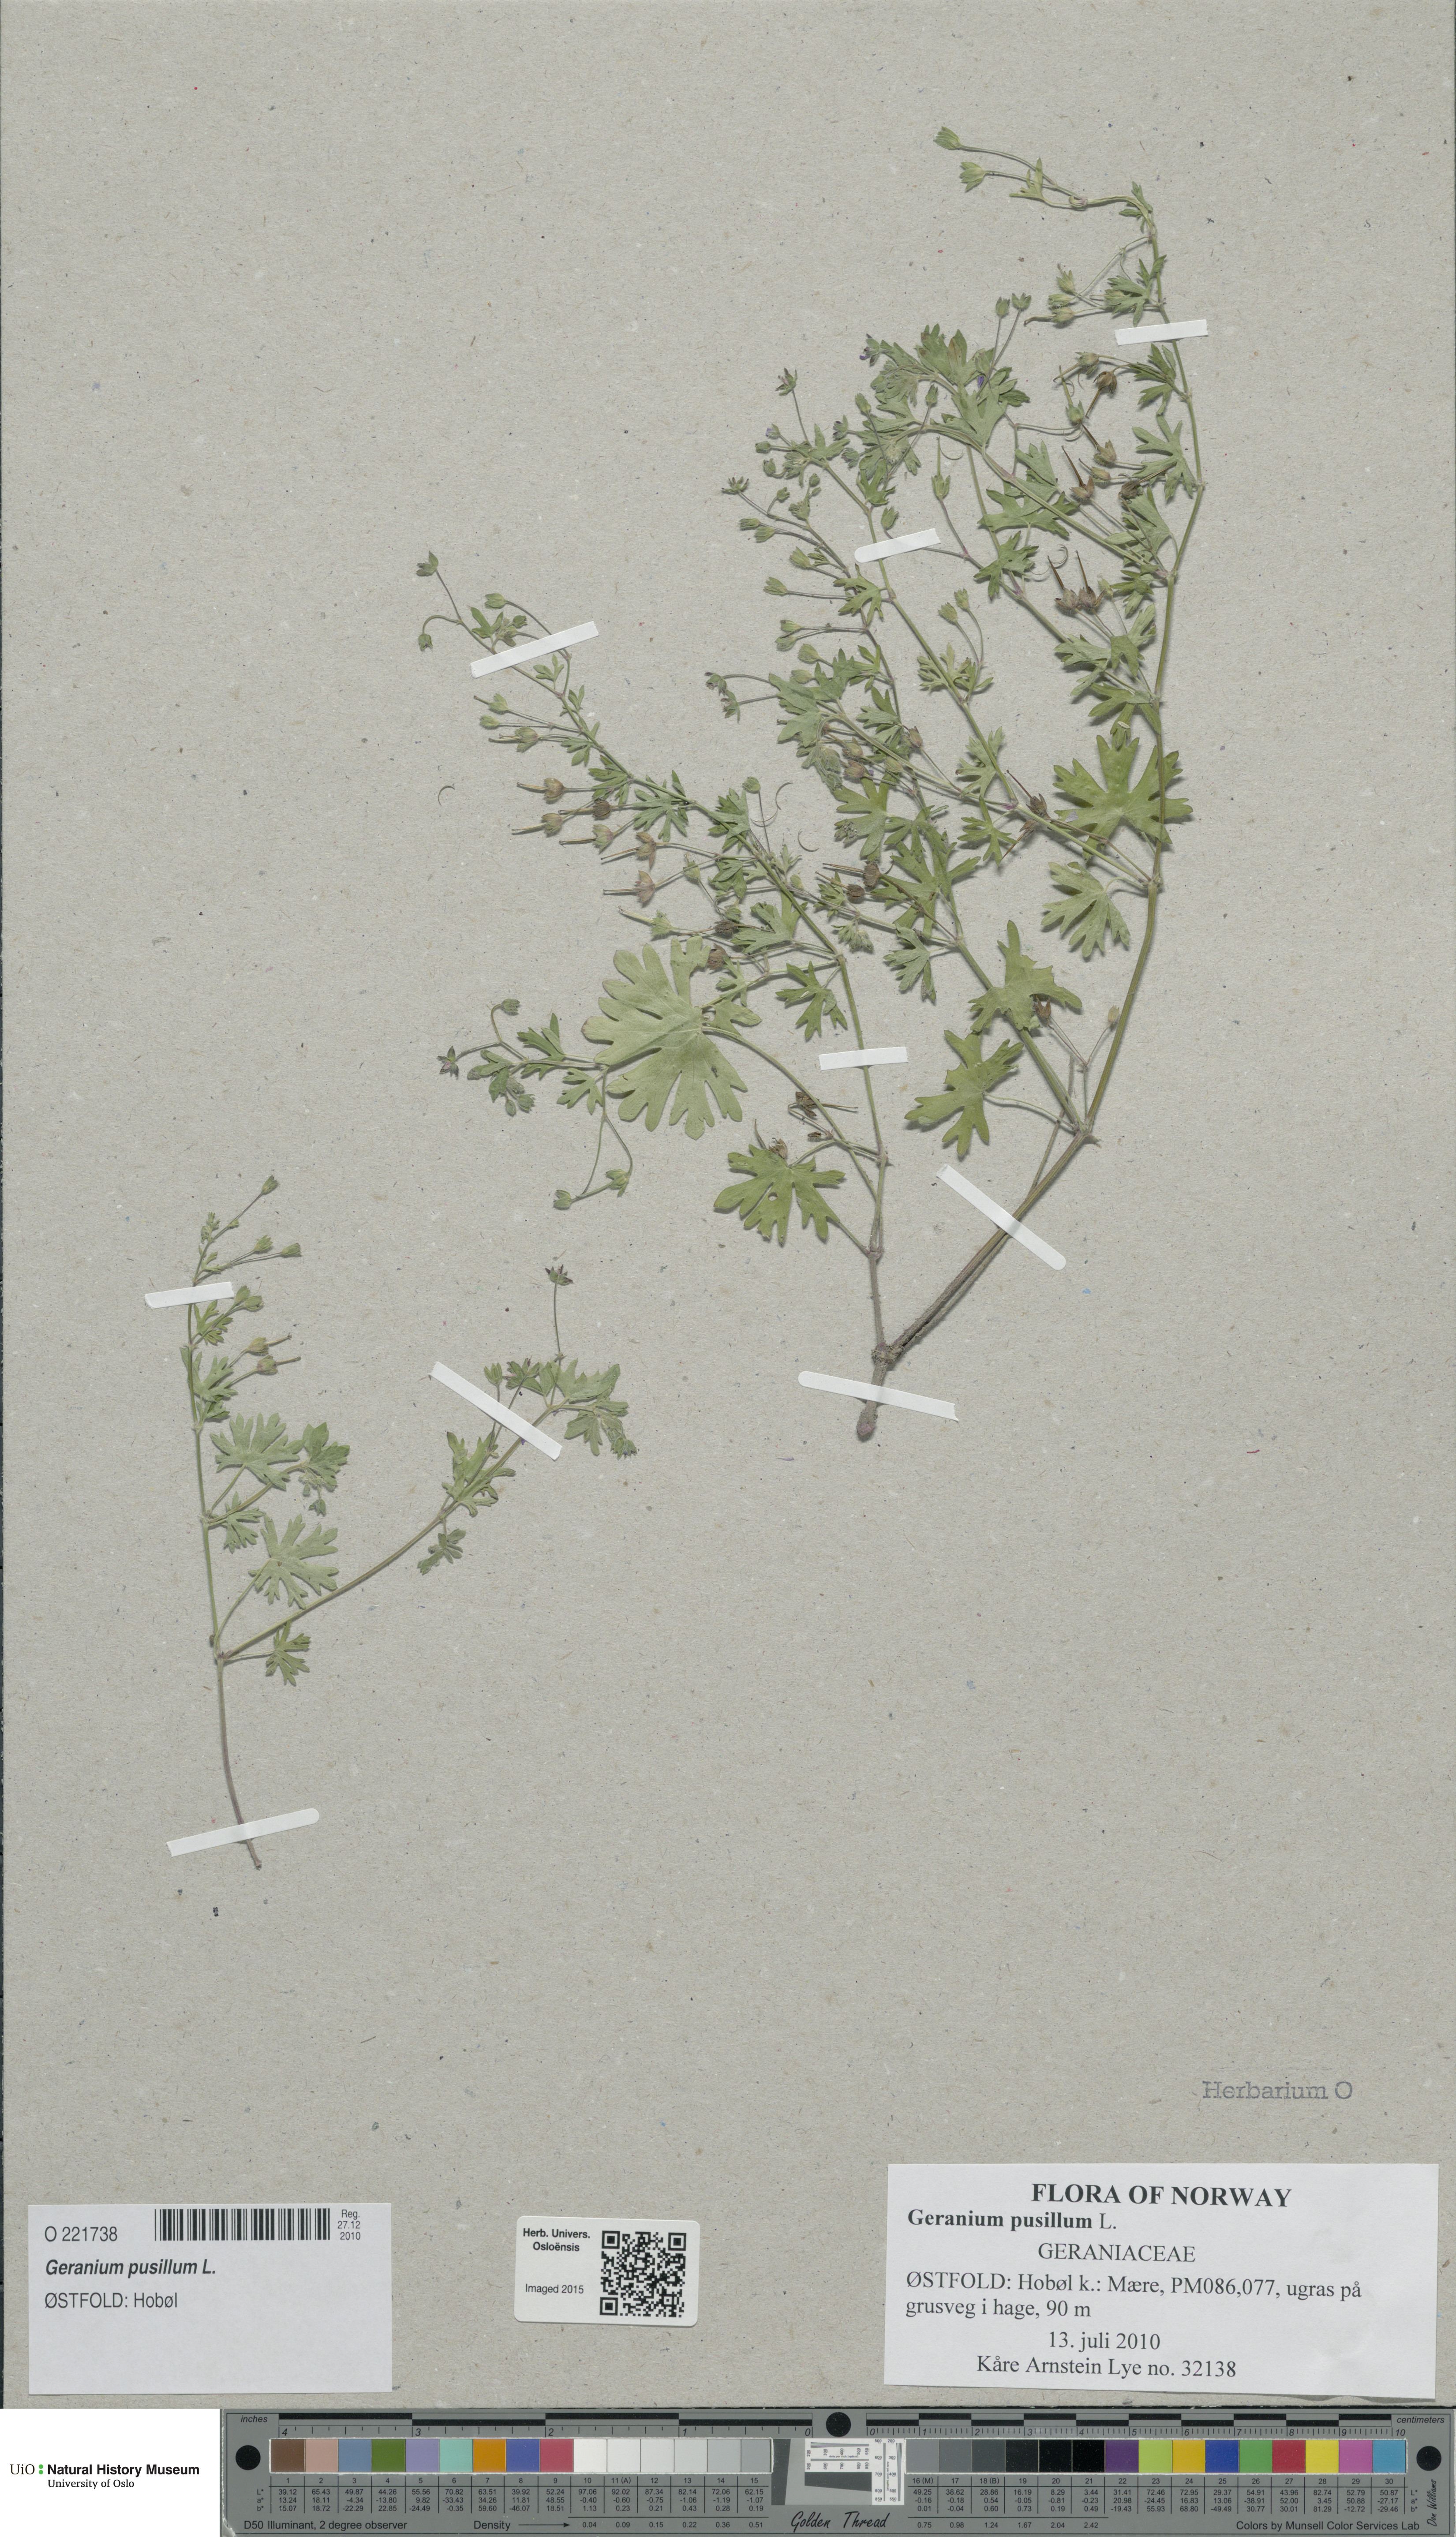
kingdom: Plantae
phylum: Tracheophyta
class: Magnoliopsida
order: Geraniales
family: Geraniaceae
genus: Geranium
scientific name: Geranium pusillum
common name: Small geranium
